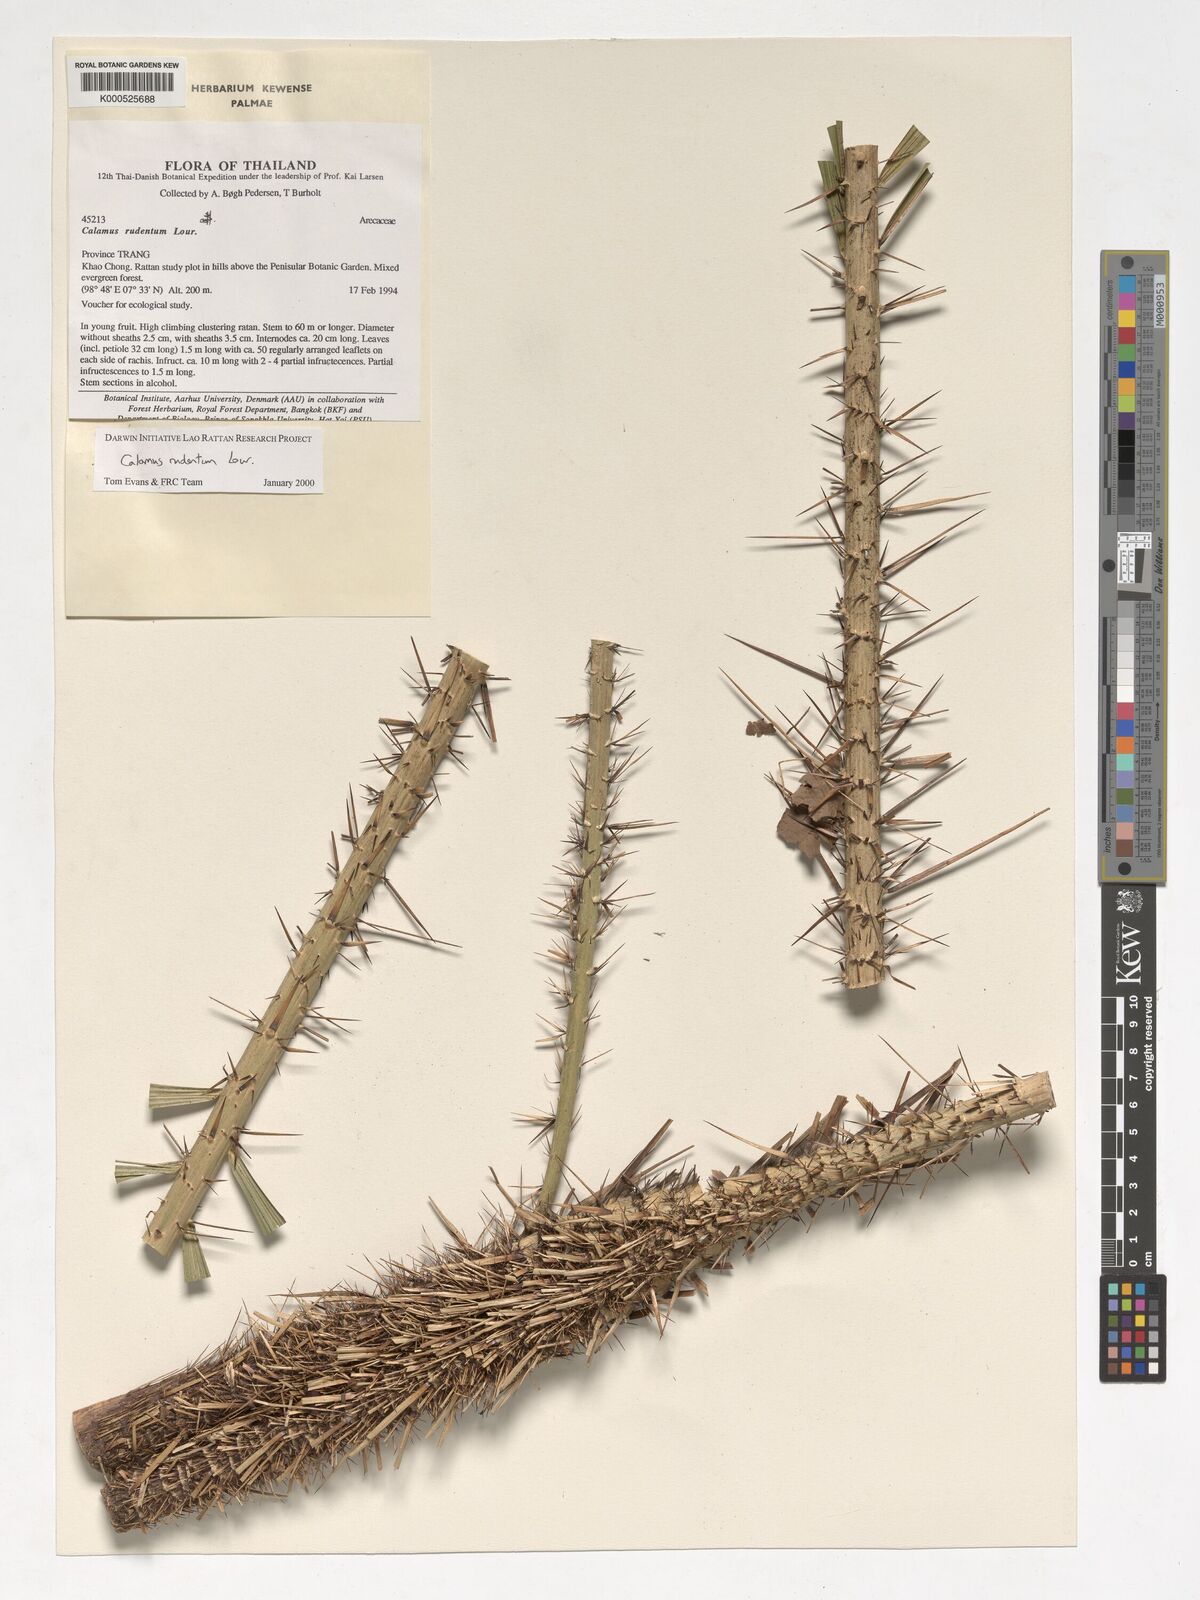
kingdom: Plantae
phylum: Tracheophyta
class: Liliopsida
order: Arecales
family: Arecaceae
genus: Calamus
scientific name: Calamus rudentum
